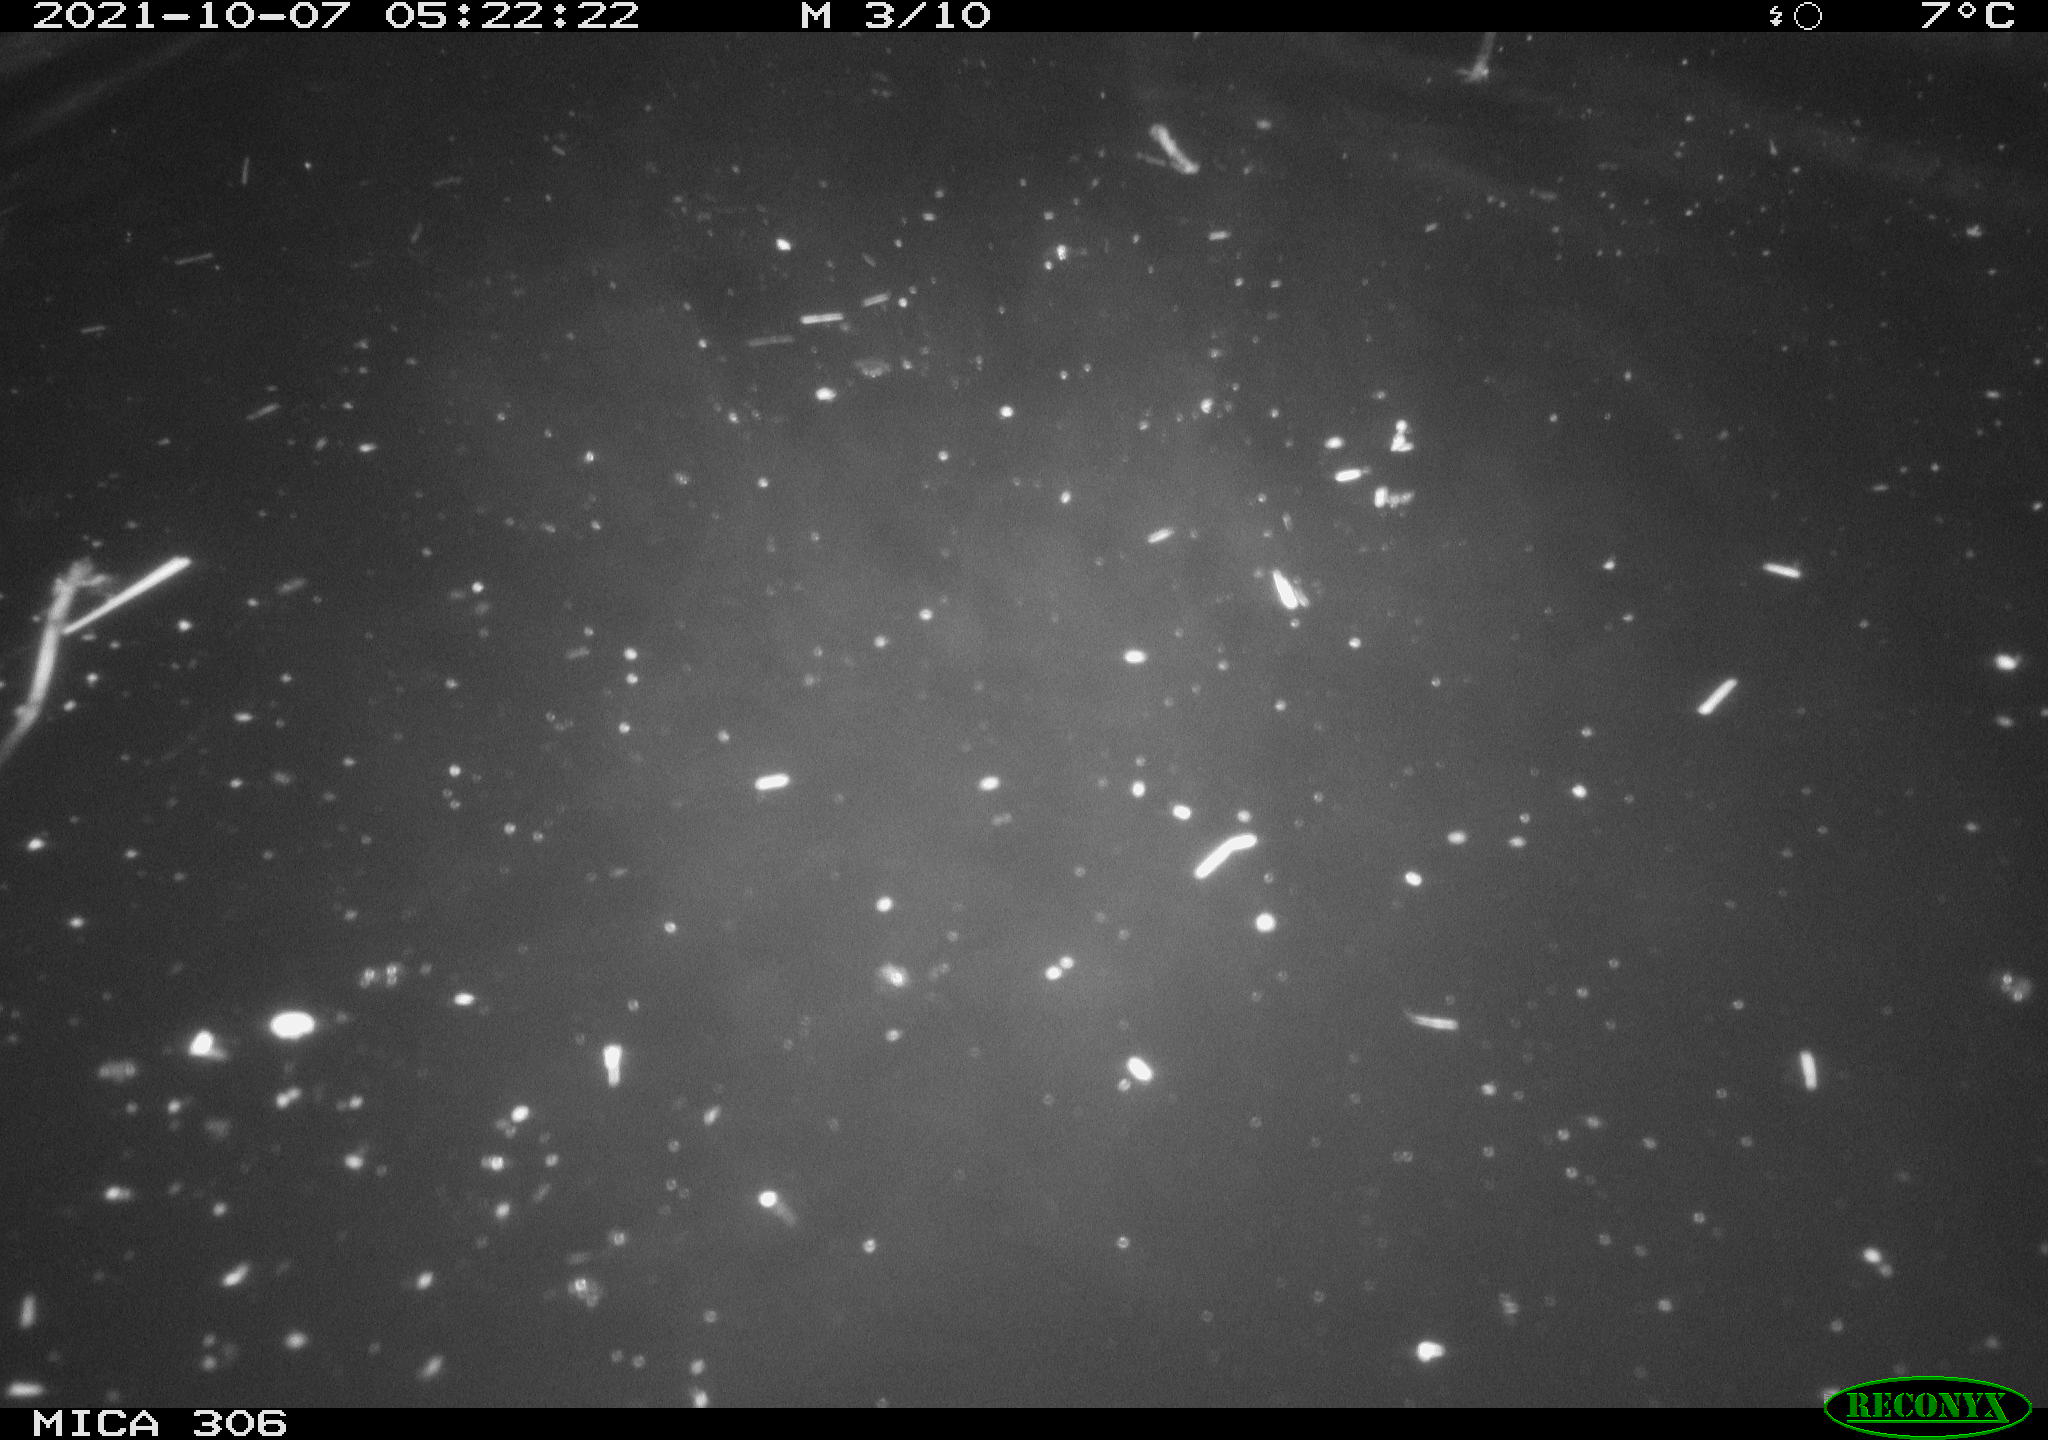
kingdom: Animalia
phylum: Chordata
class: Mammalia
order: Rodentia
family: Cricetidae
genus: Ondatra
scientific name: Ondatra zibethicus
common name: Muskrat
